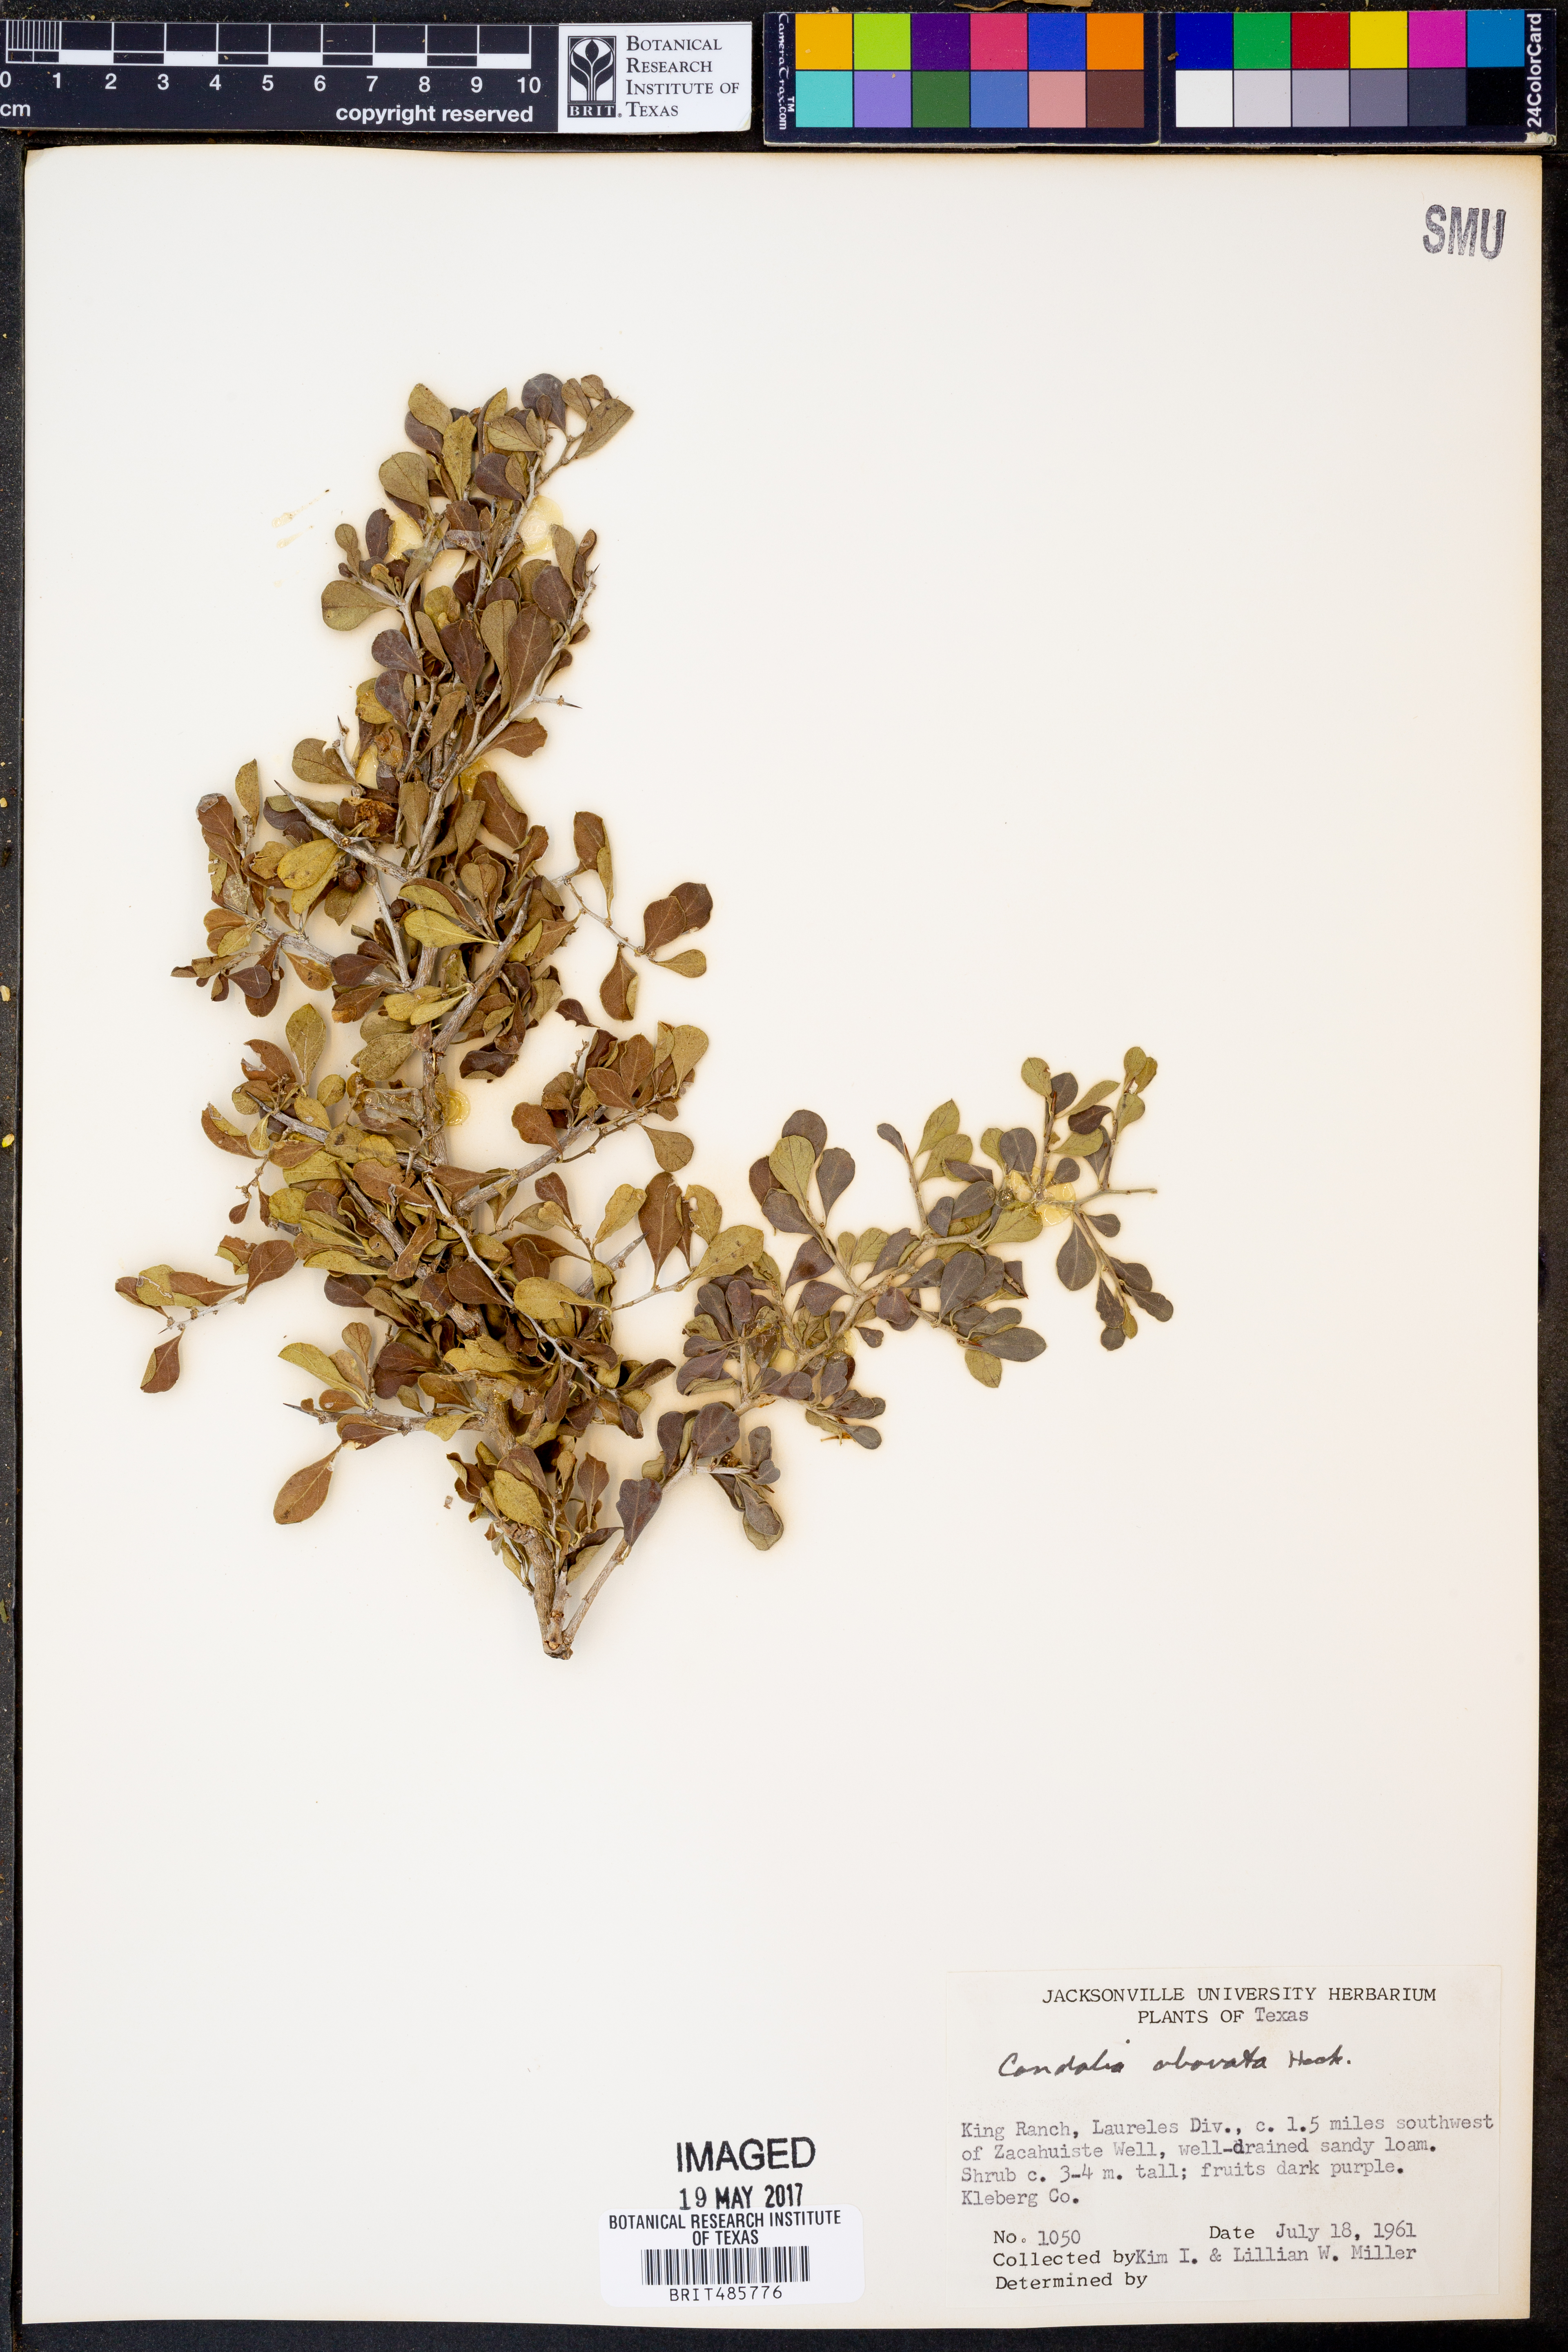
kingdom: Plantae
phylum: Tracheophyta
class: Magnoliopsida
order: Rosales
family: Rhamnaceae
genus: Condalia
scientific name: Condalia hookeri
